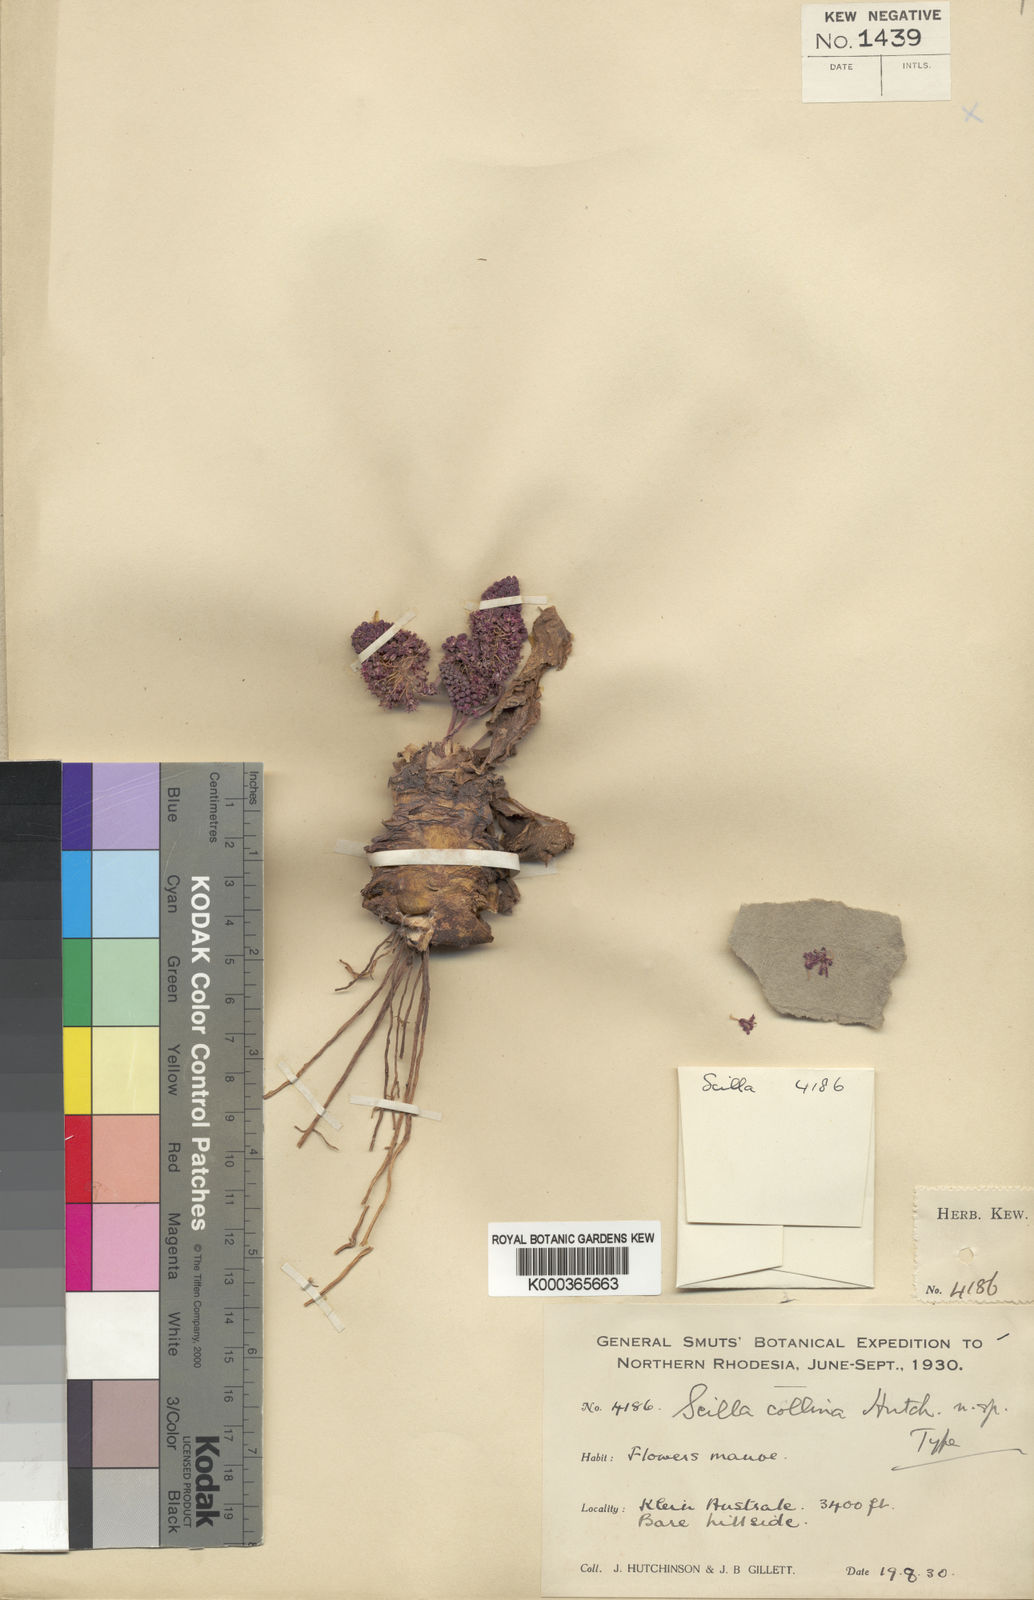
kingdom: Plantae
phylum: Tracheophyta
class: Liliopsida
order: Asparagales
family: Asparagaceae
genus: Ledebouria
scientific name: Ledebouria ovatifolia
